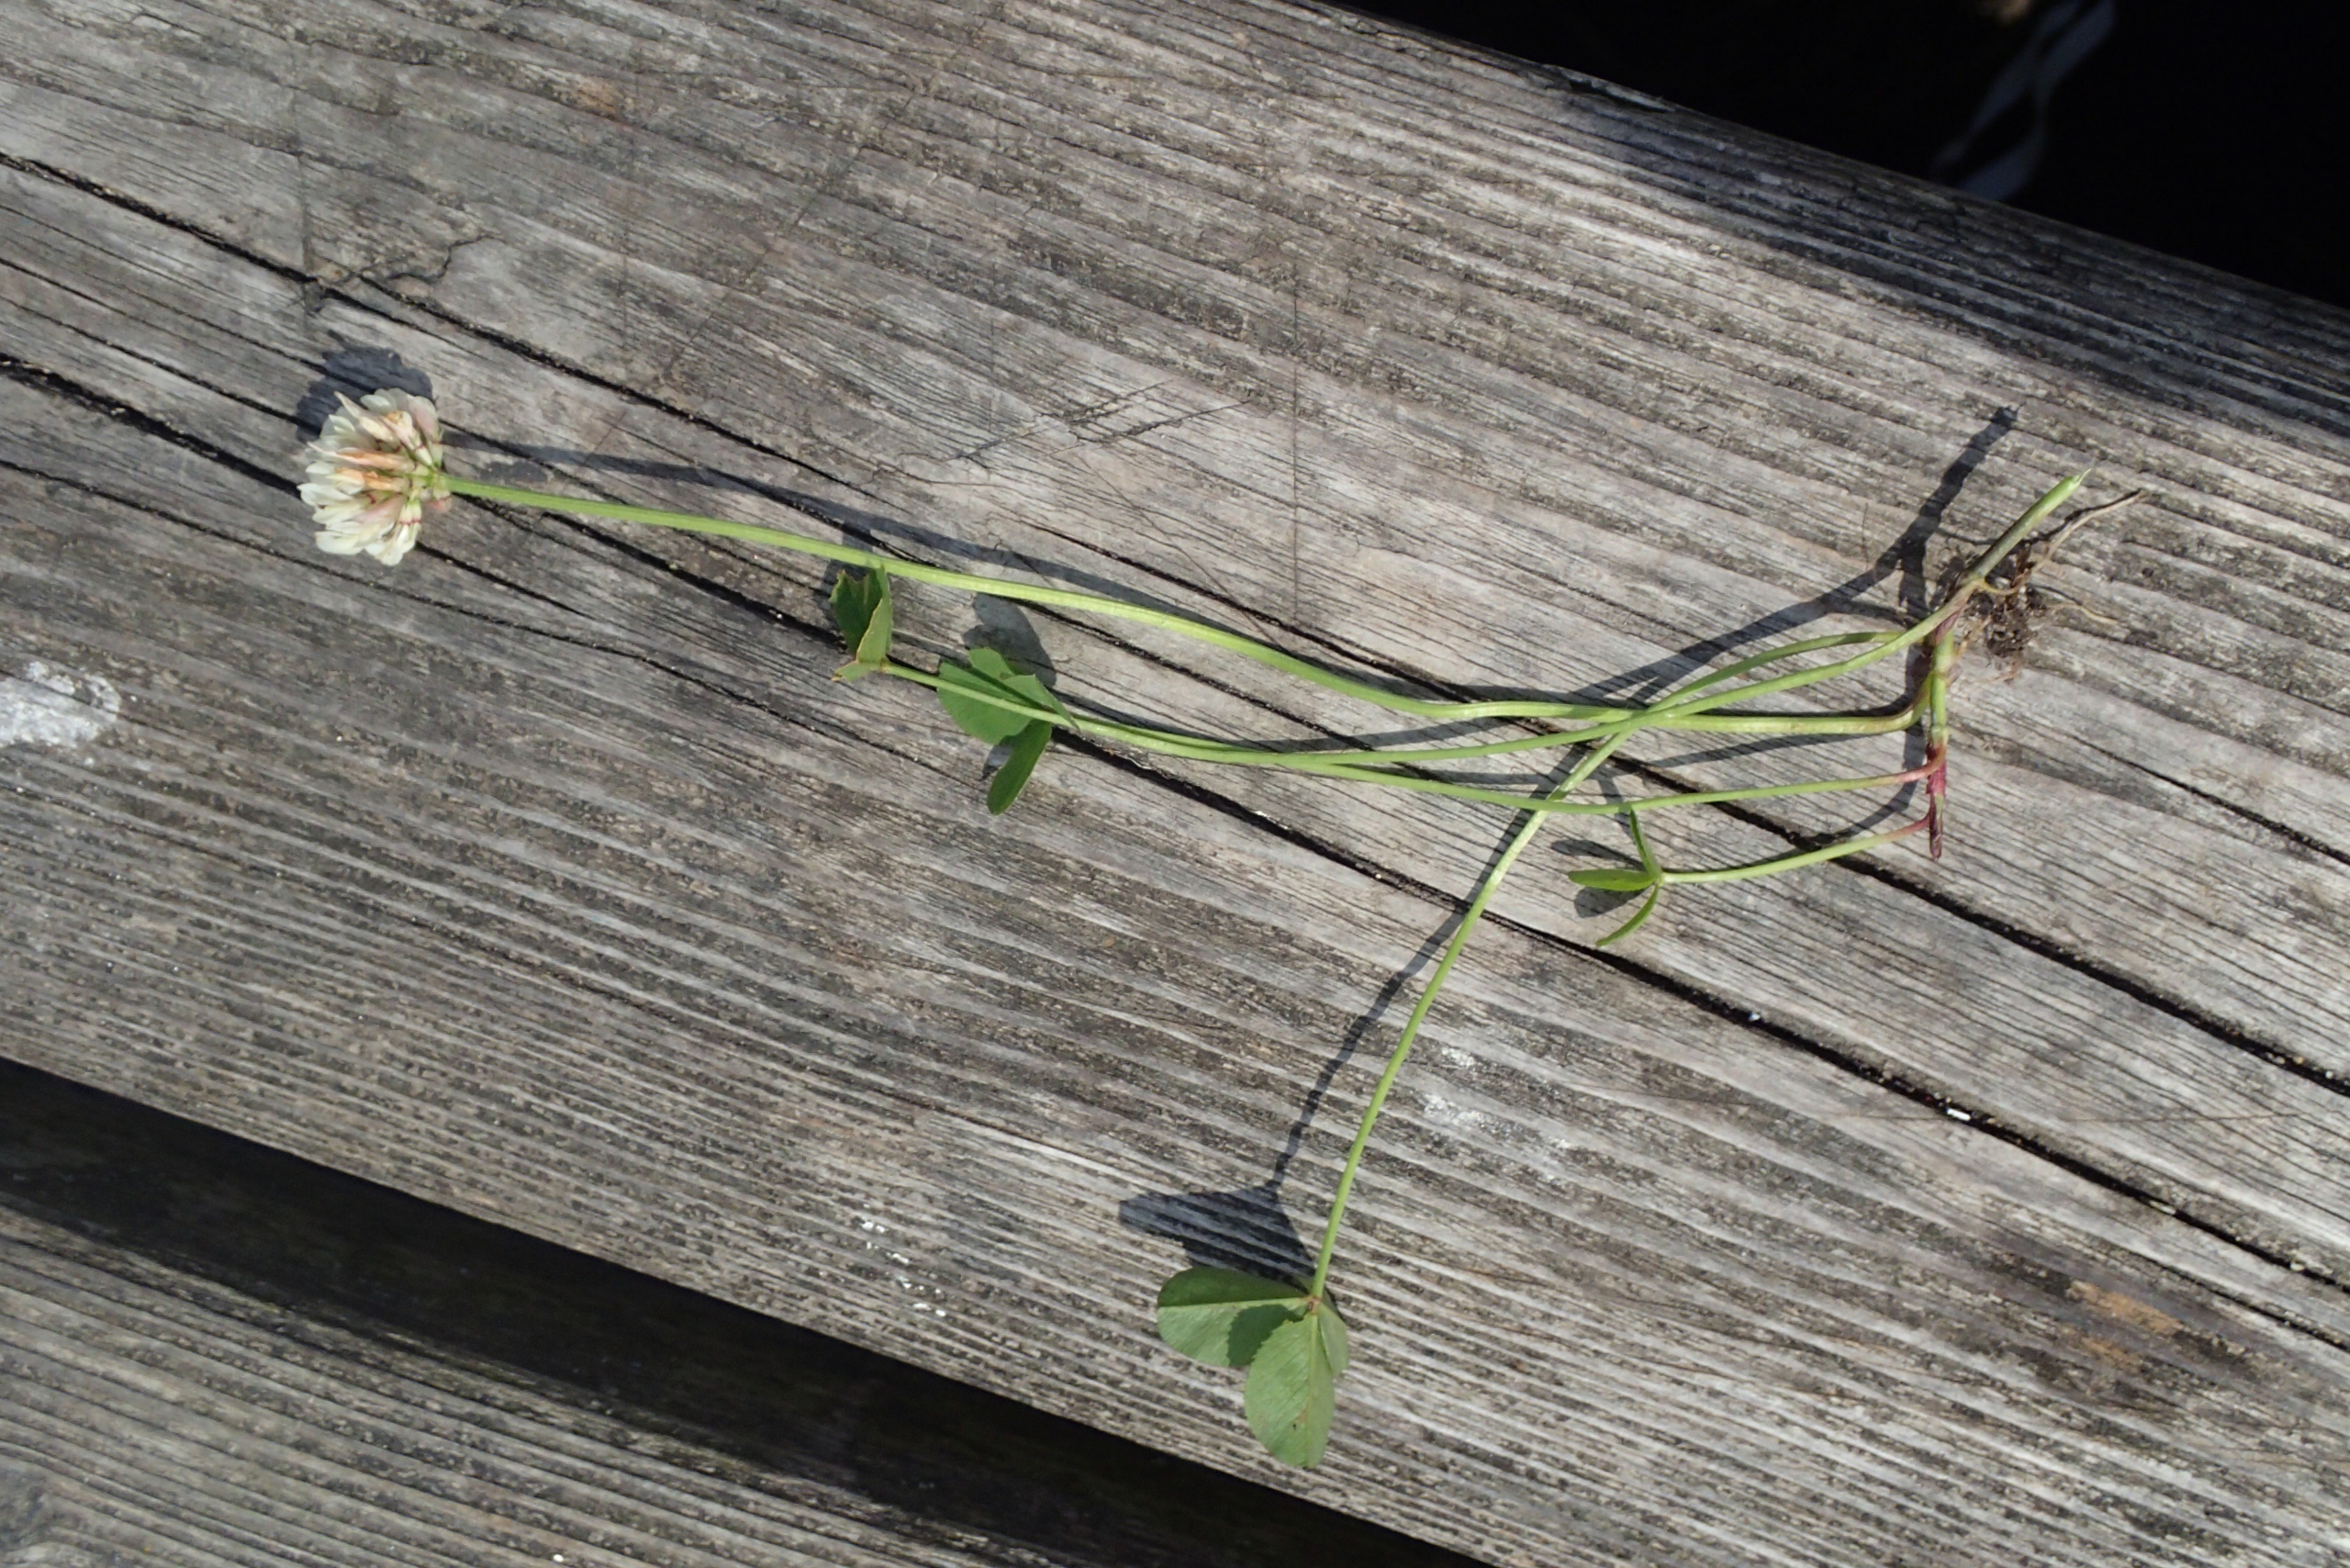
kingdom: Plantae
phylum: Tracheophyta
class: Magnoliopsida
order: Fabales
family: Fabaceae
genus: Trifolium
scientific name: Trifolium repens
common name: Hvid-kløver
